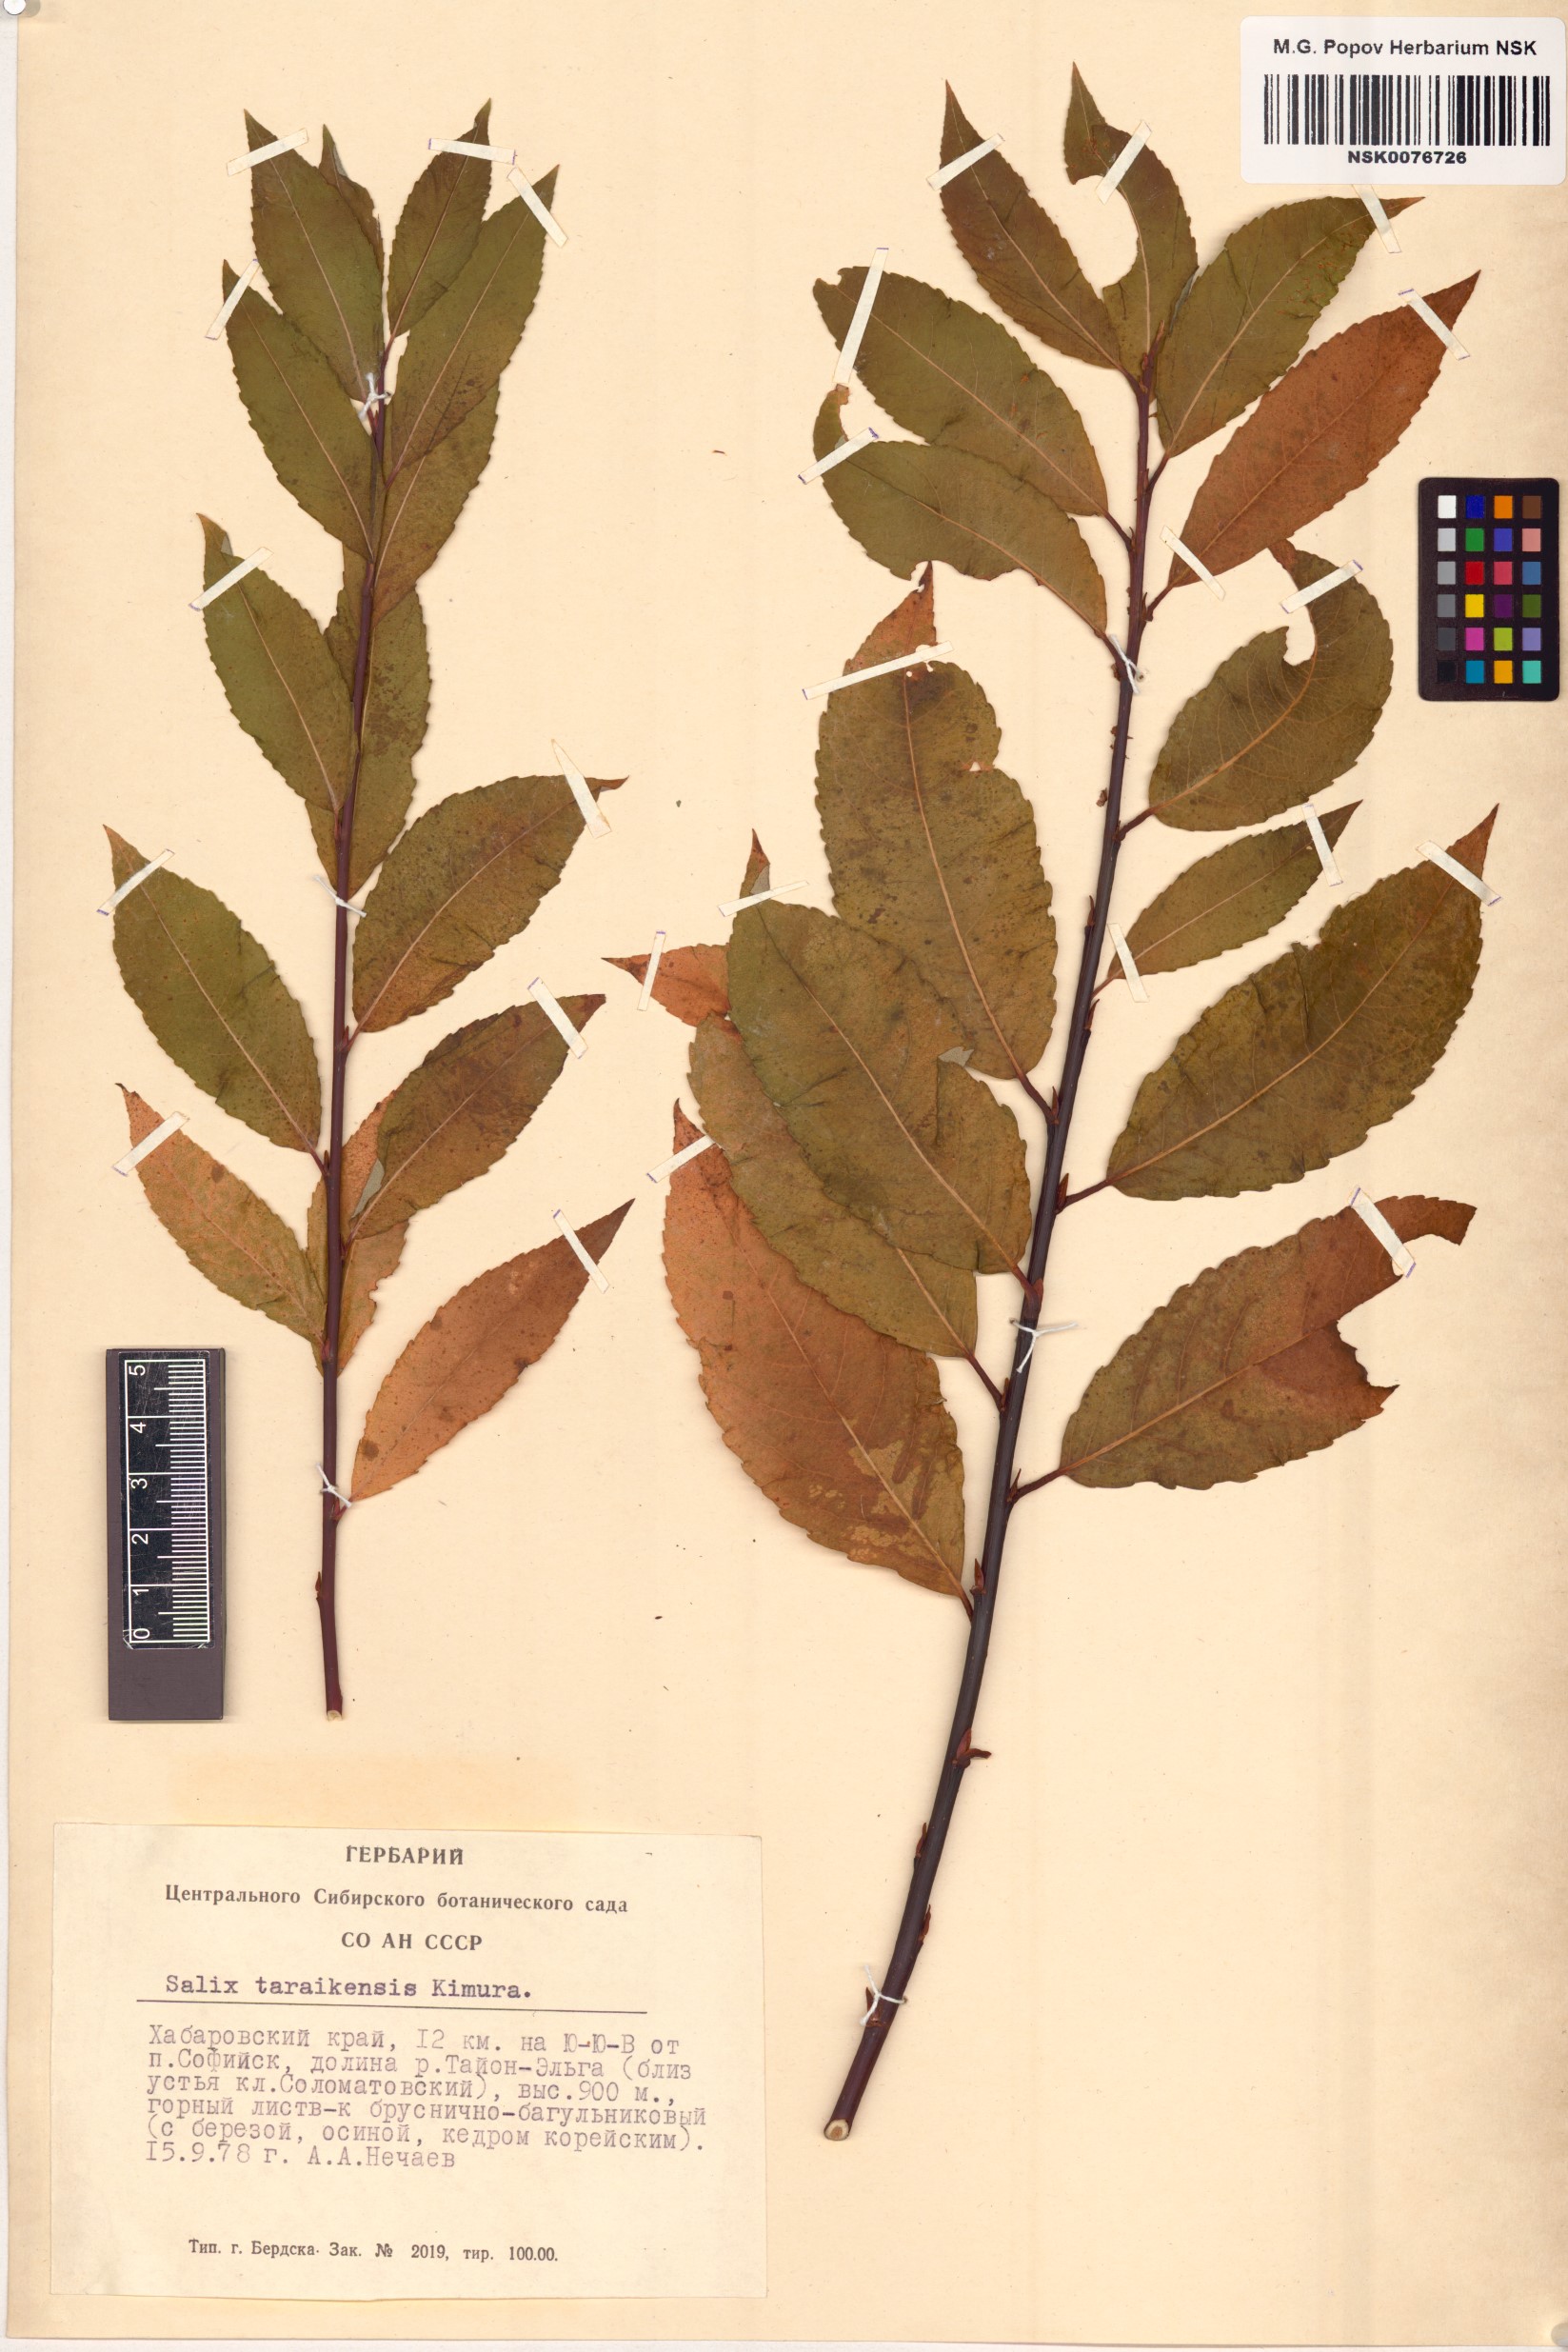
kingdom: Plantae
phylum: Tracheophyta
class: Magnoliopsida
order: Malpighiales
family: Salicaceae
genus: Salix
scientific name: Salix taraikensis
